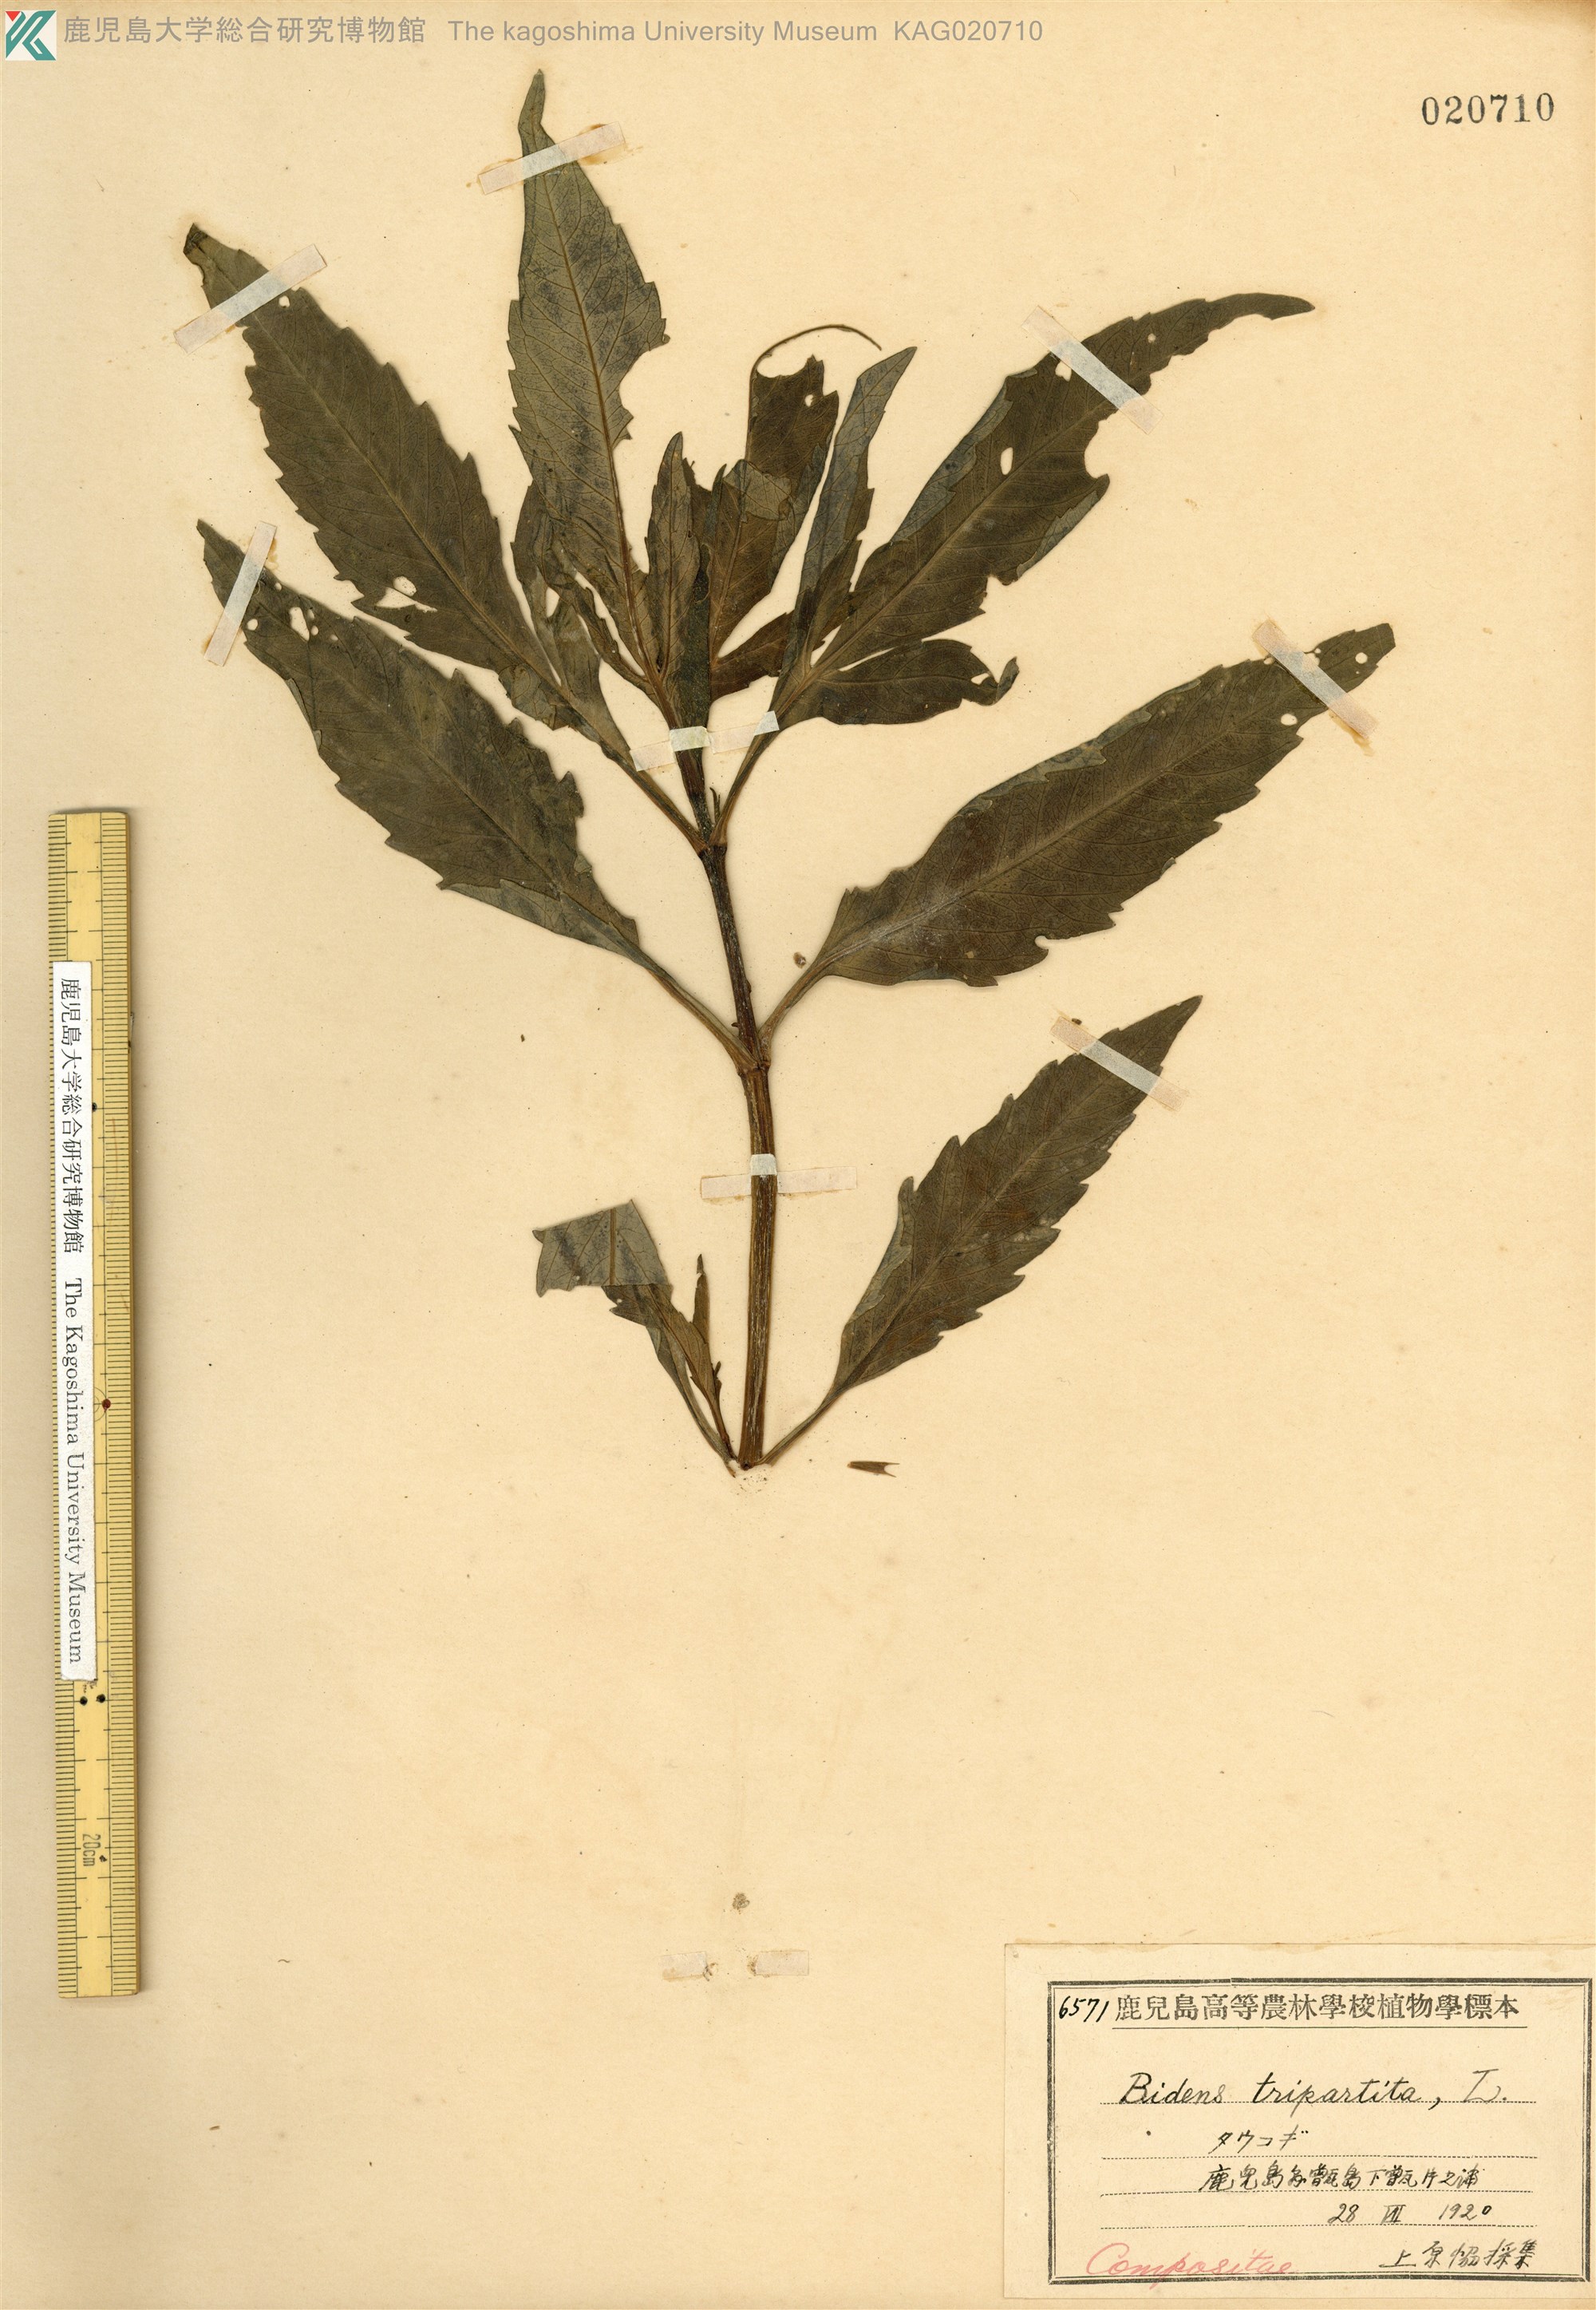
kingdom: Plantae
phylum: Tracheophyta
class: Magnoliopsida
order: Asterales
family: Asteraceae
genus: Bidens
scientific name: Bidens tripartita
